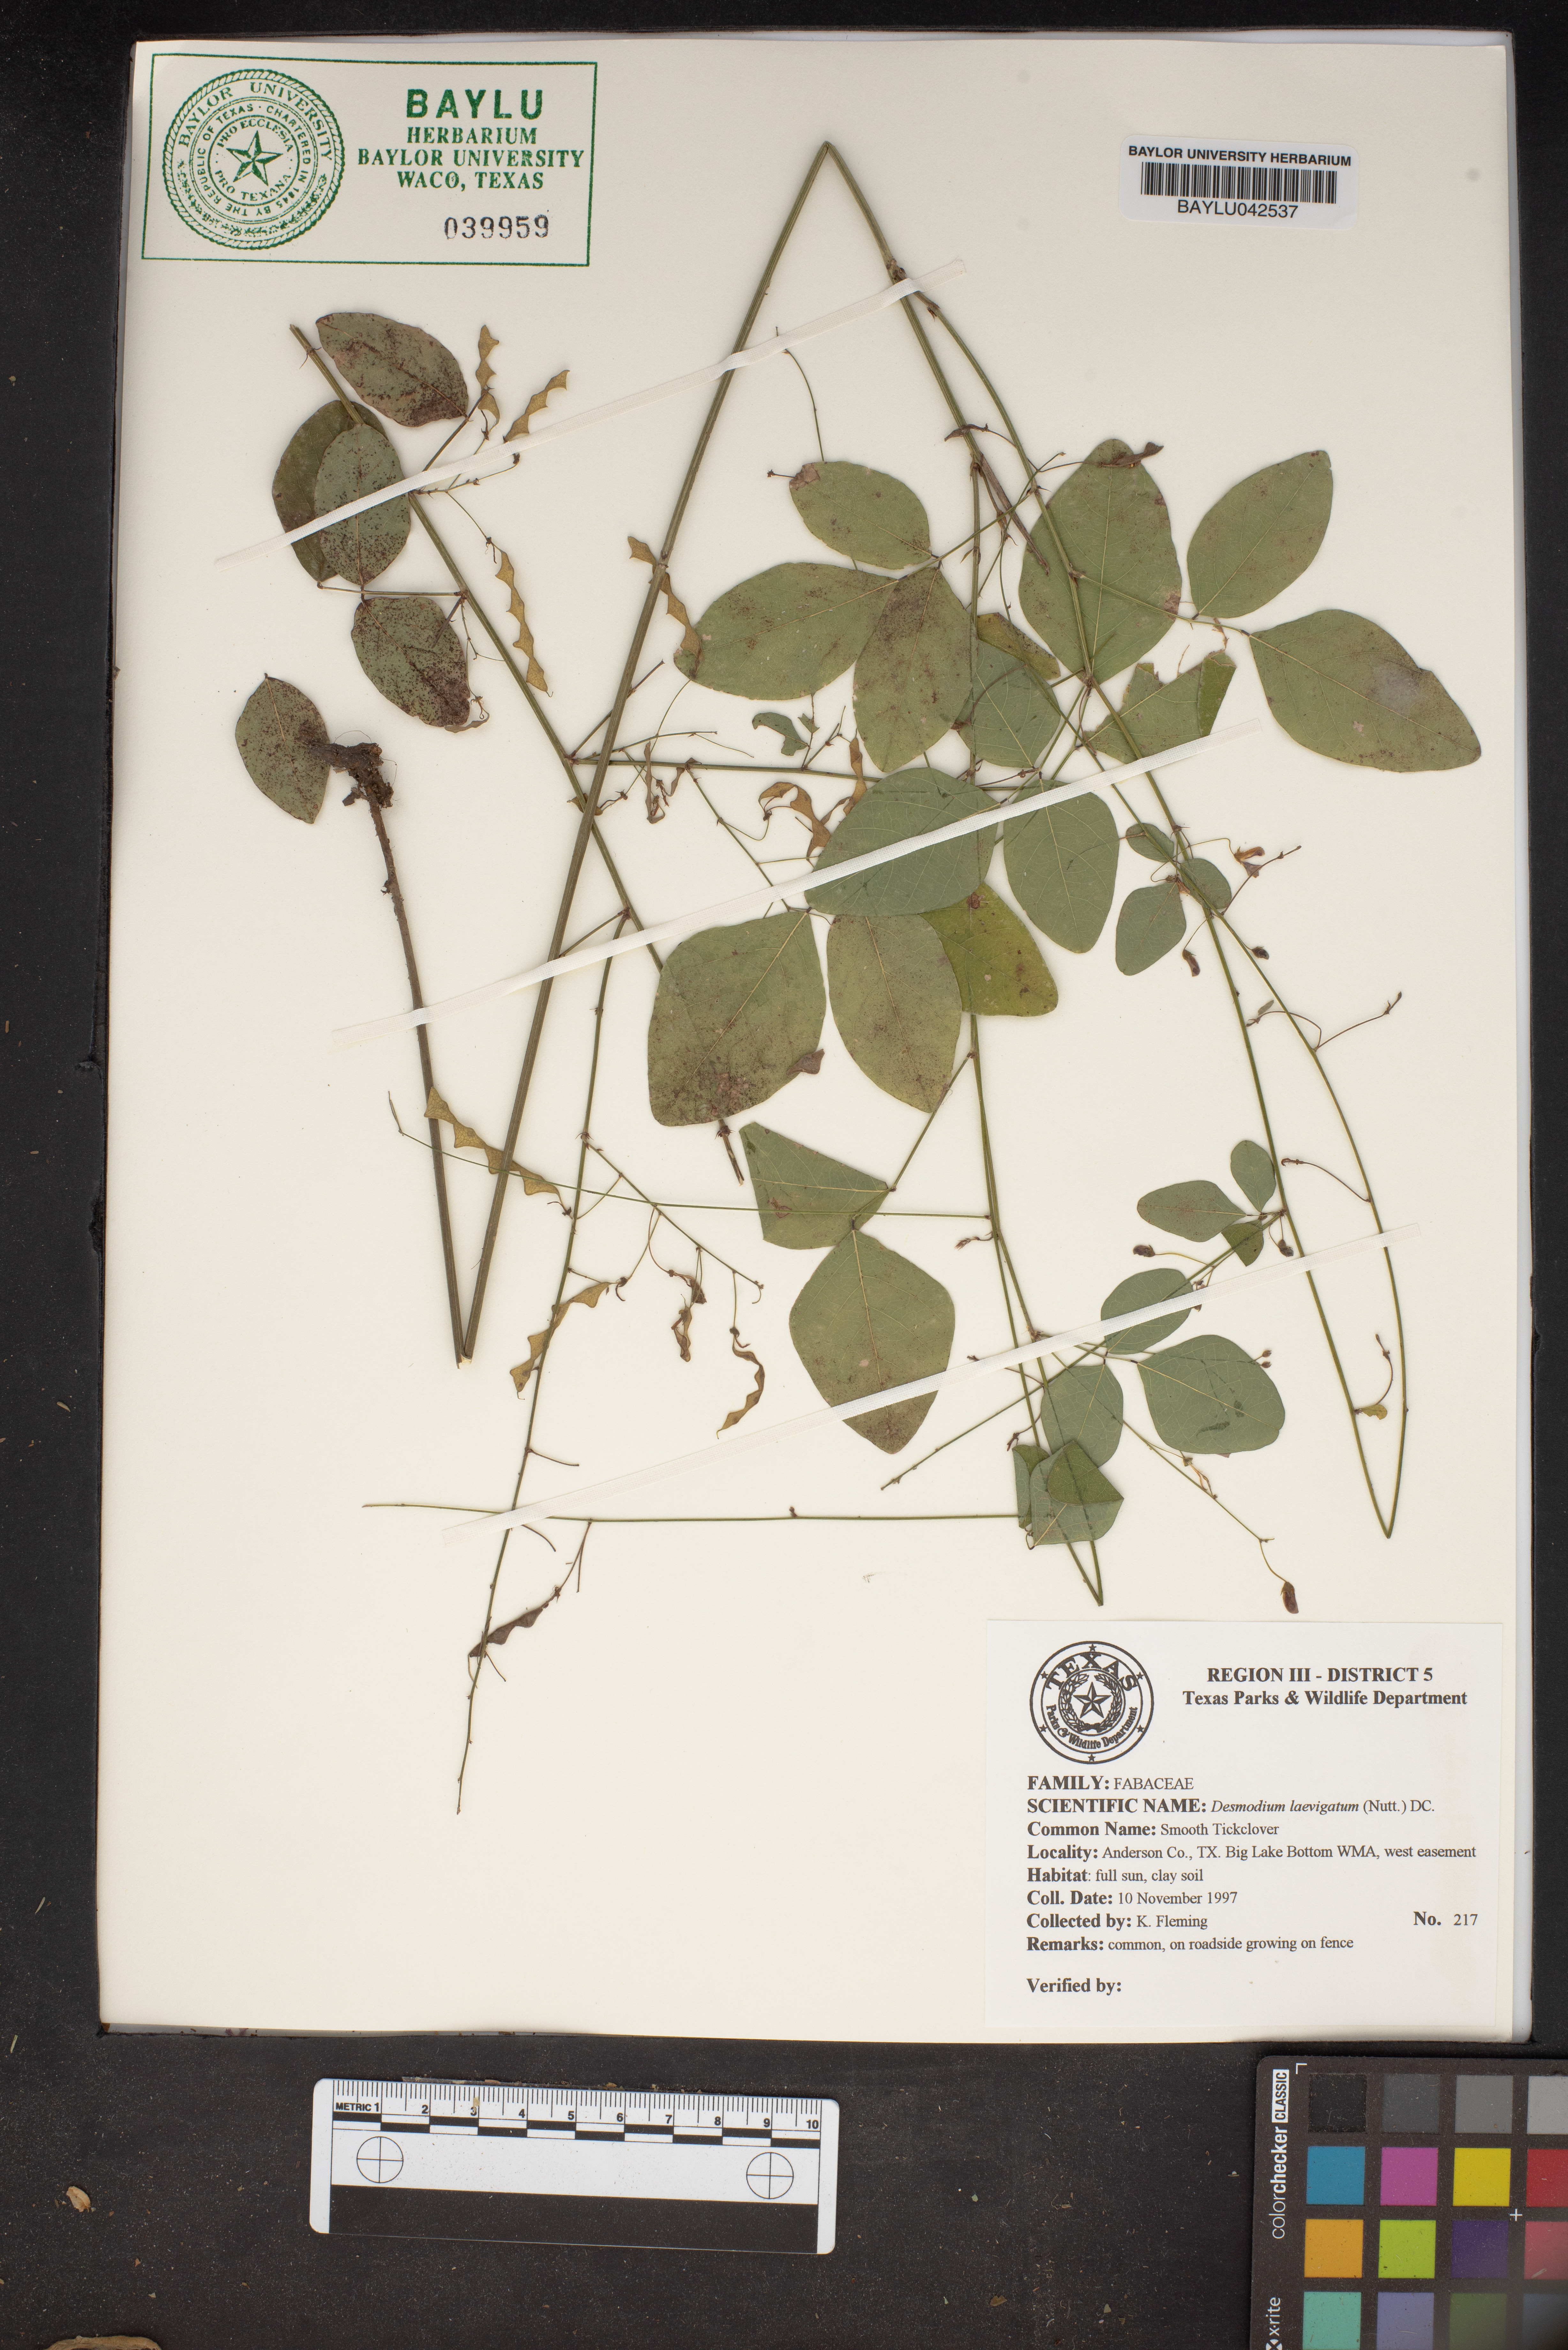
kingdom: Plantae
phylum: Tracheophyta
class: Magnoliopsida
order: Fabales
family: Fabaceae
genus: Desmodium
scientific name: Desmodium laevigatum
